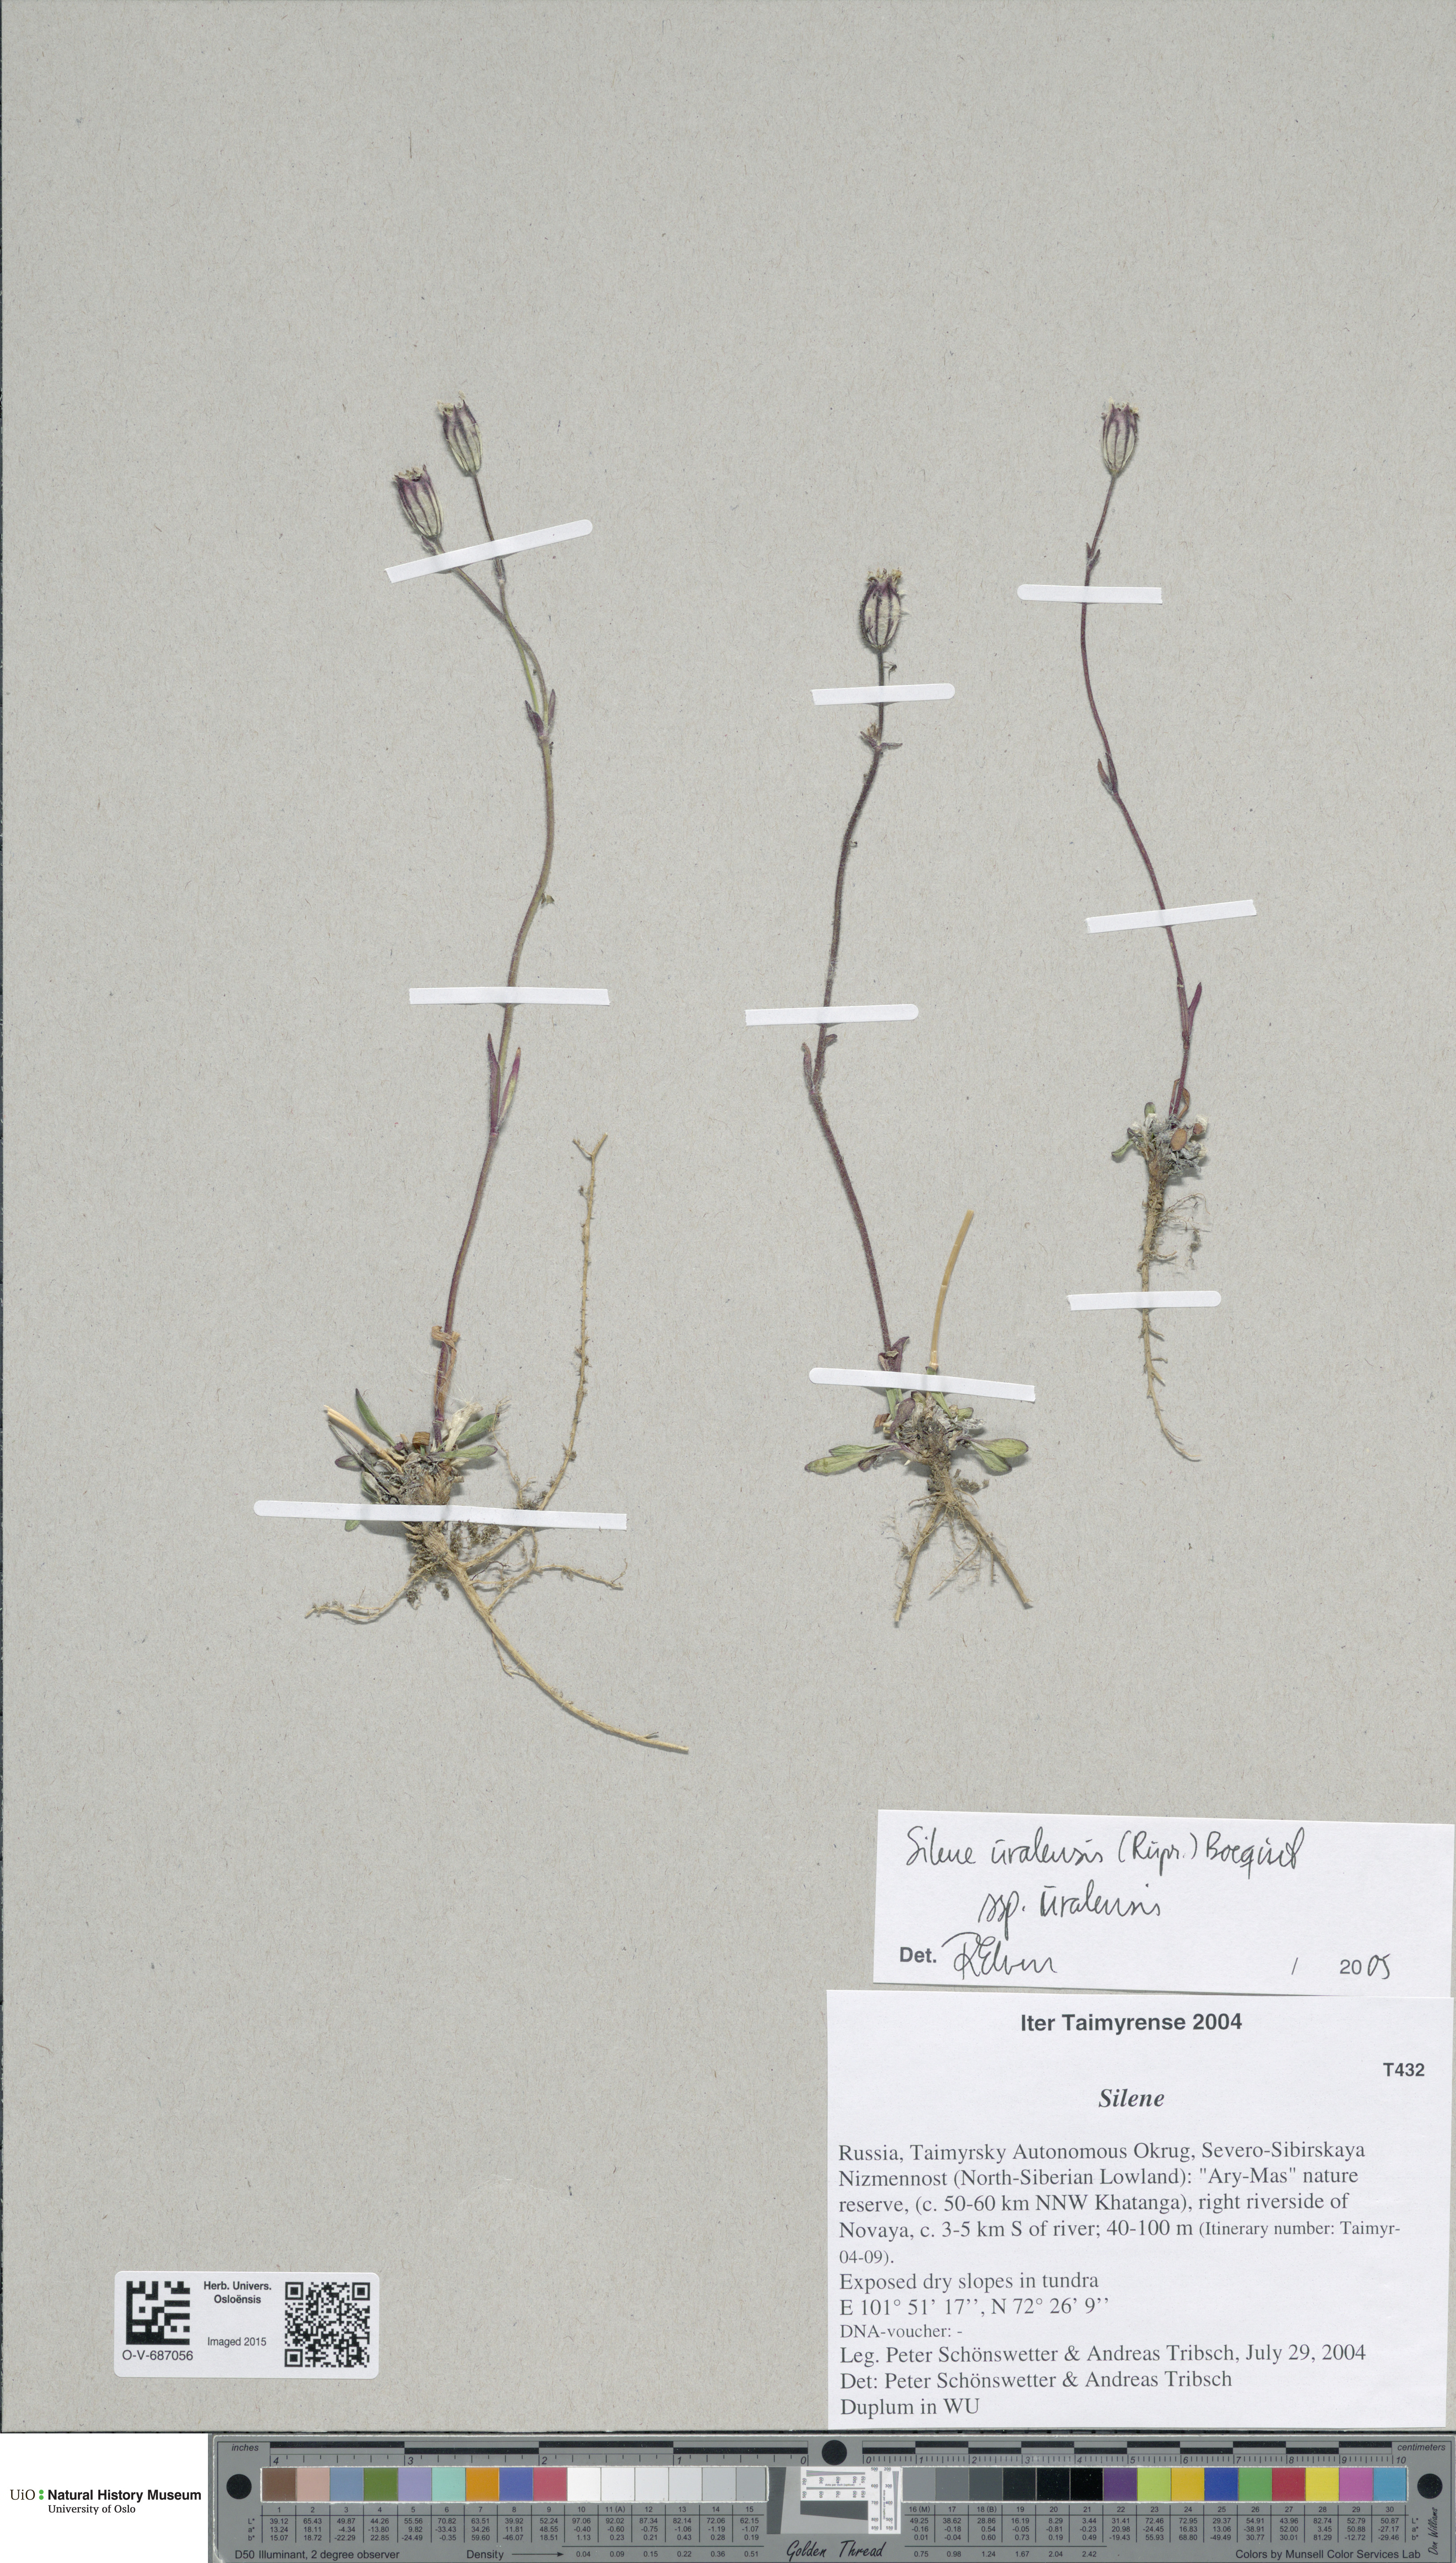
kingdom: Plantae
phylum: Tracheophyta
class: Magnoliopsida
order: Caryophyllales
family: Caryophyllaceae
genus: Silene
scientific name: Silene uralensis
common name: Nodding campion
